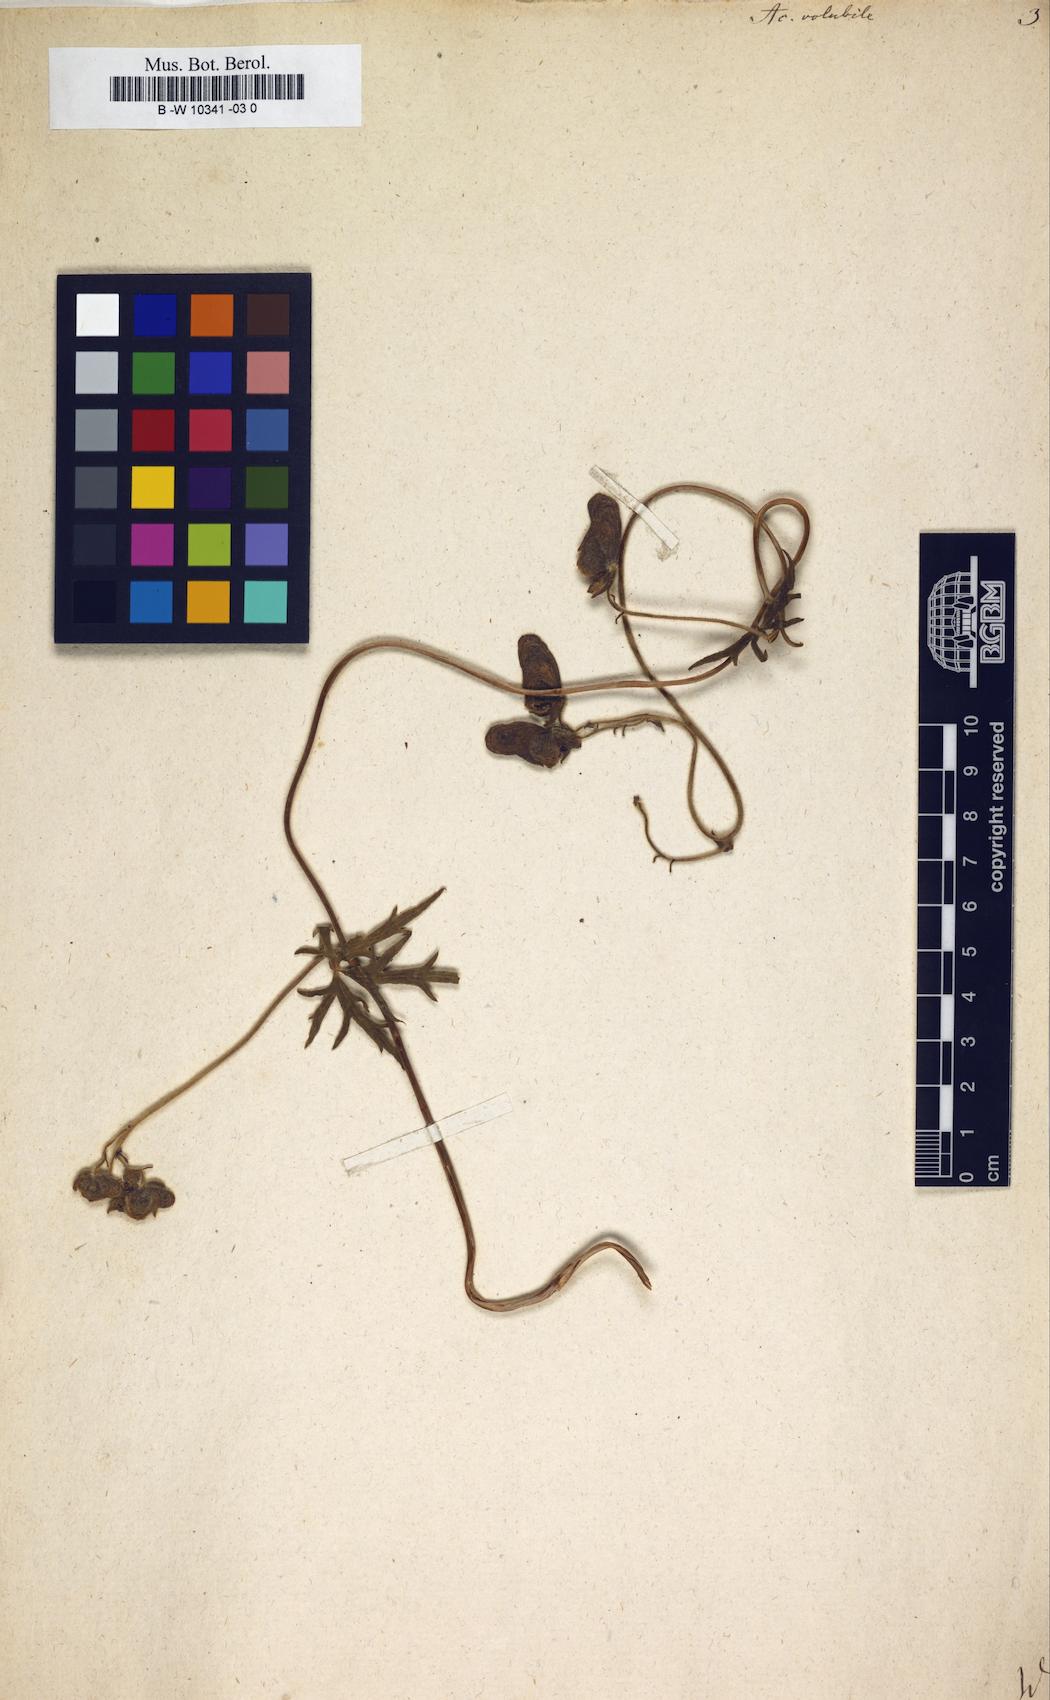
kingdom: Plantae
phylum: Tracheophyta
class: Magnoliopsida
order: Ranunculales
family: Ranunculaceae
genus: Aconitum
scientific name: Aconitum volubile
